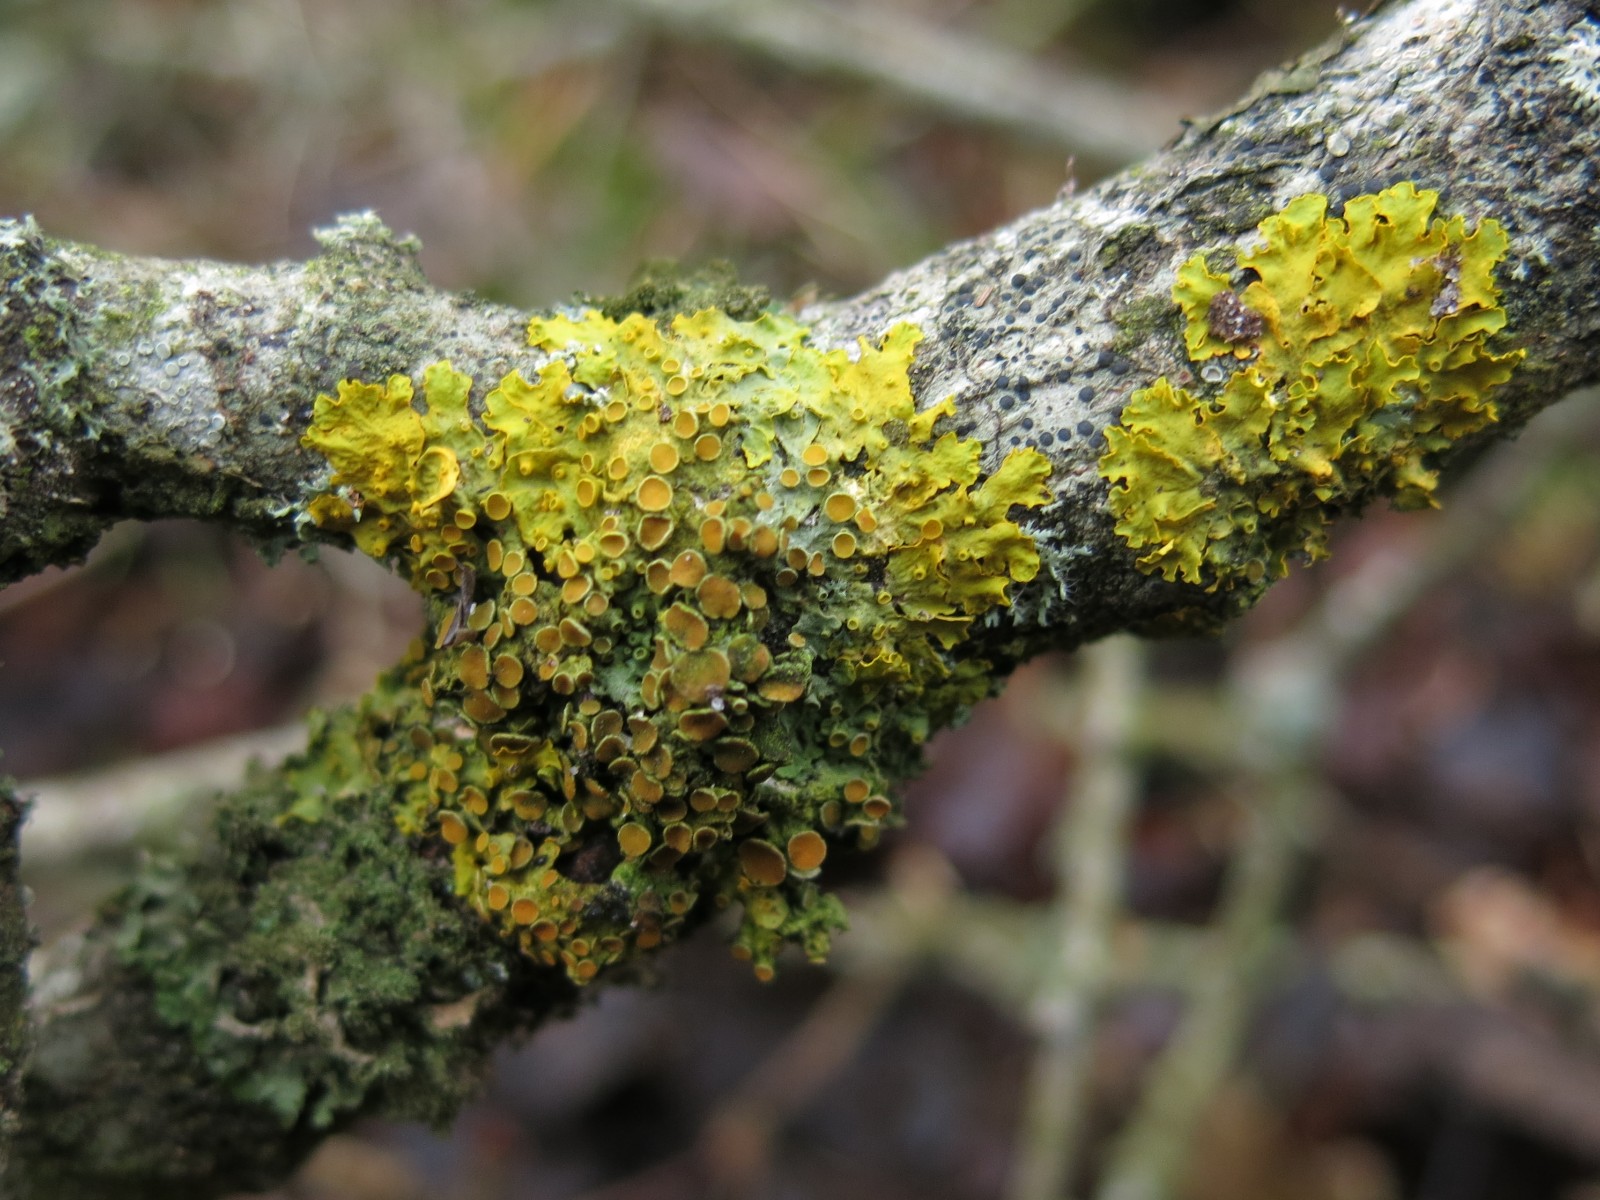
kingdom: Fungi
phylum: Ascomycota
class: Lecanoromycetes
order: Teloschistales
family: Teloschistaceae
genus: Xanthoria
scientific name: Xanthoria parietina
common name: almindelig væggelav
